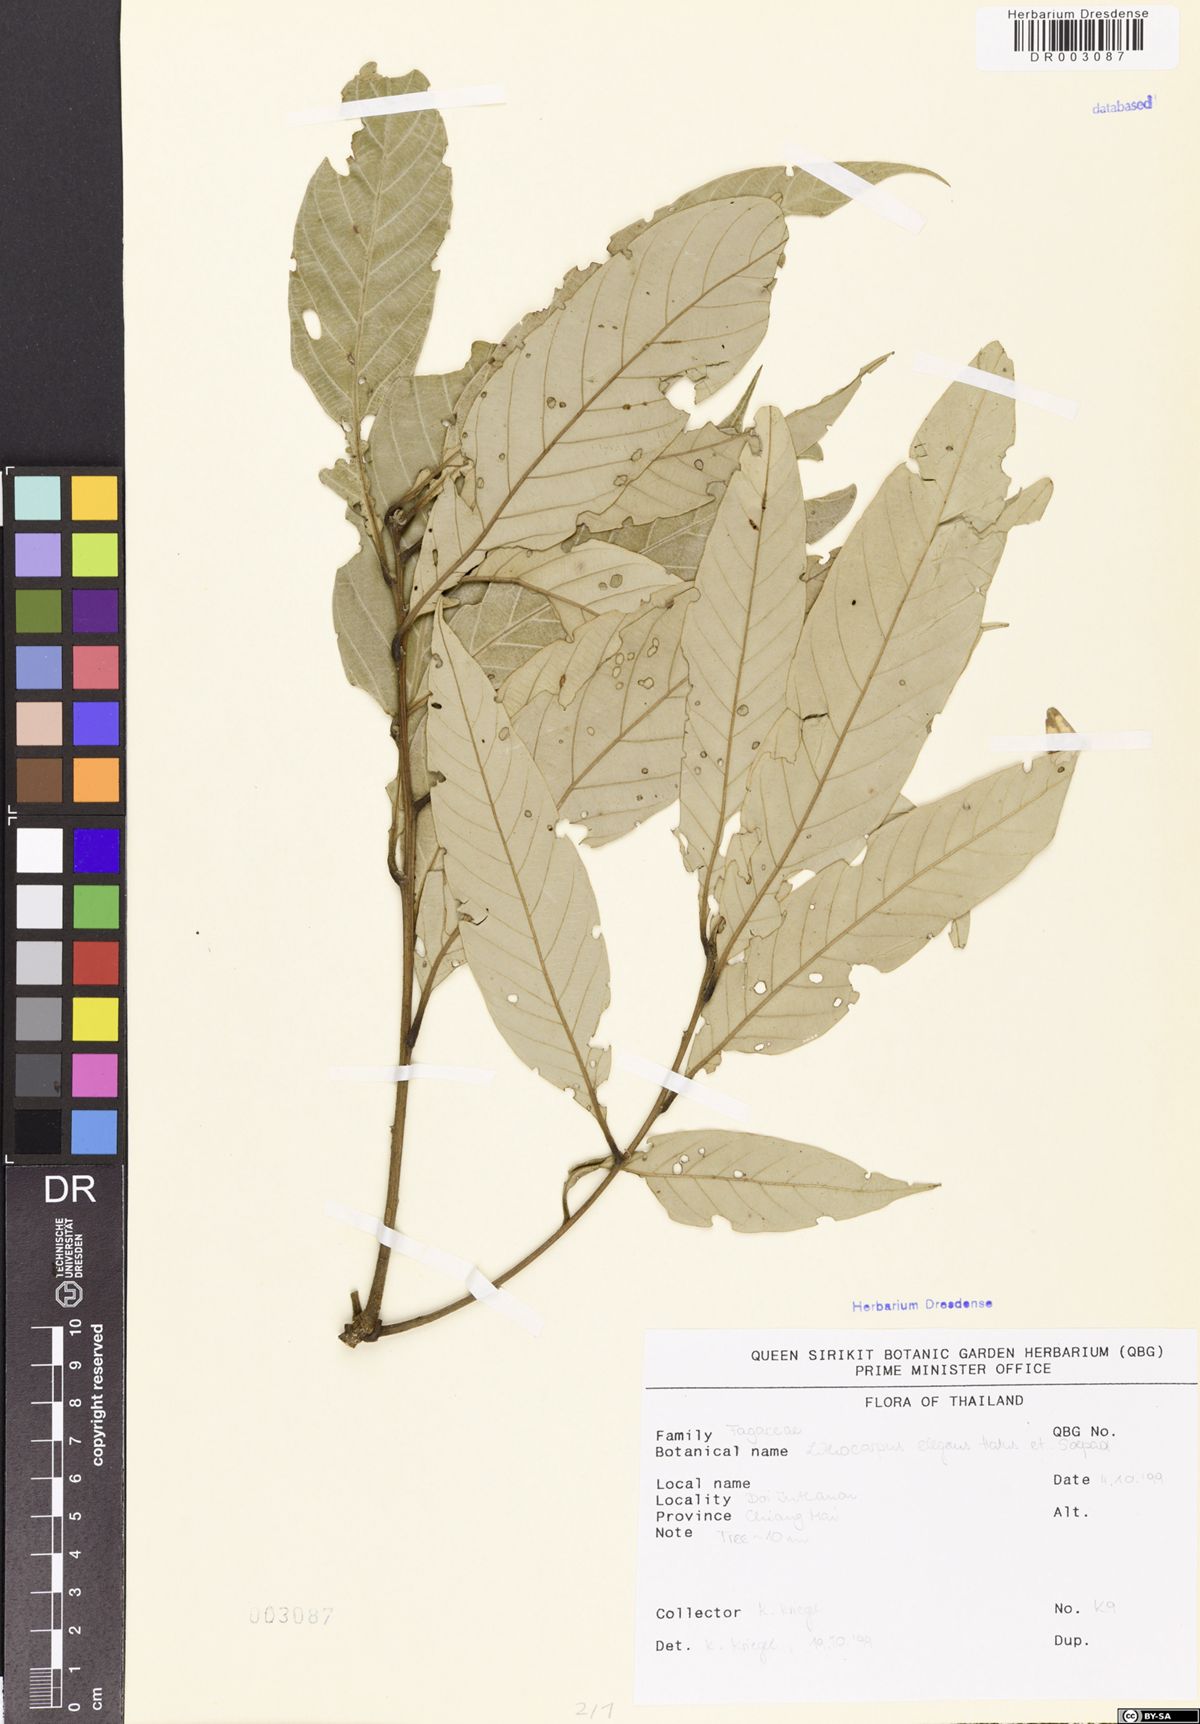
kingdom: Plantae
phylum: Tracheophyta
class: Magnoliopsida
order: Fagales
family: Fagaceae
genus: Lithocarpus
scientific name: Lithocarpus elegans
